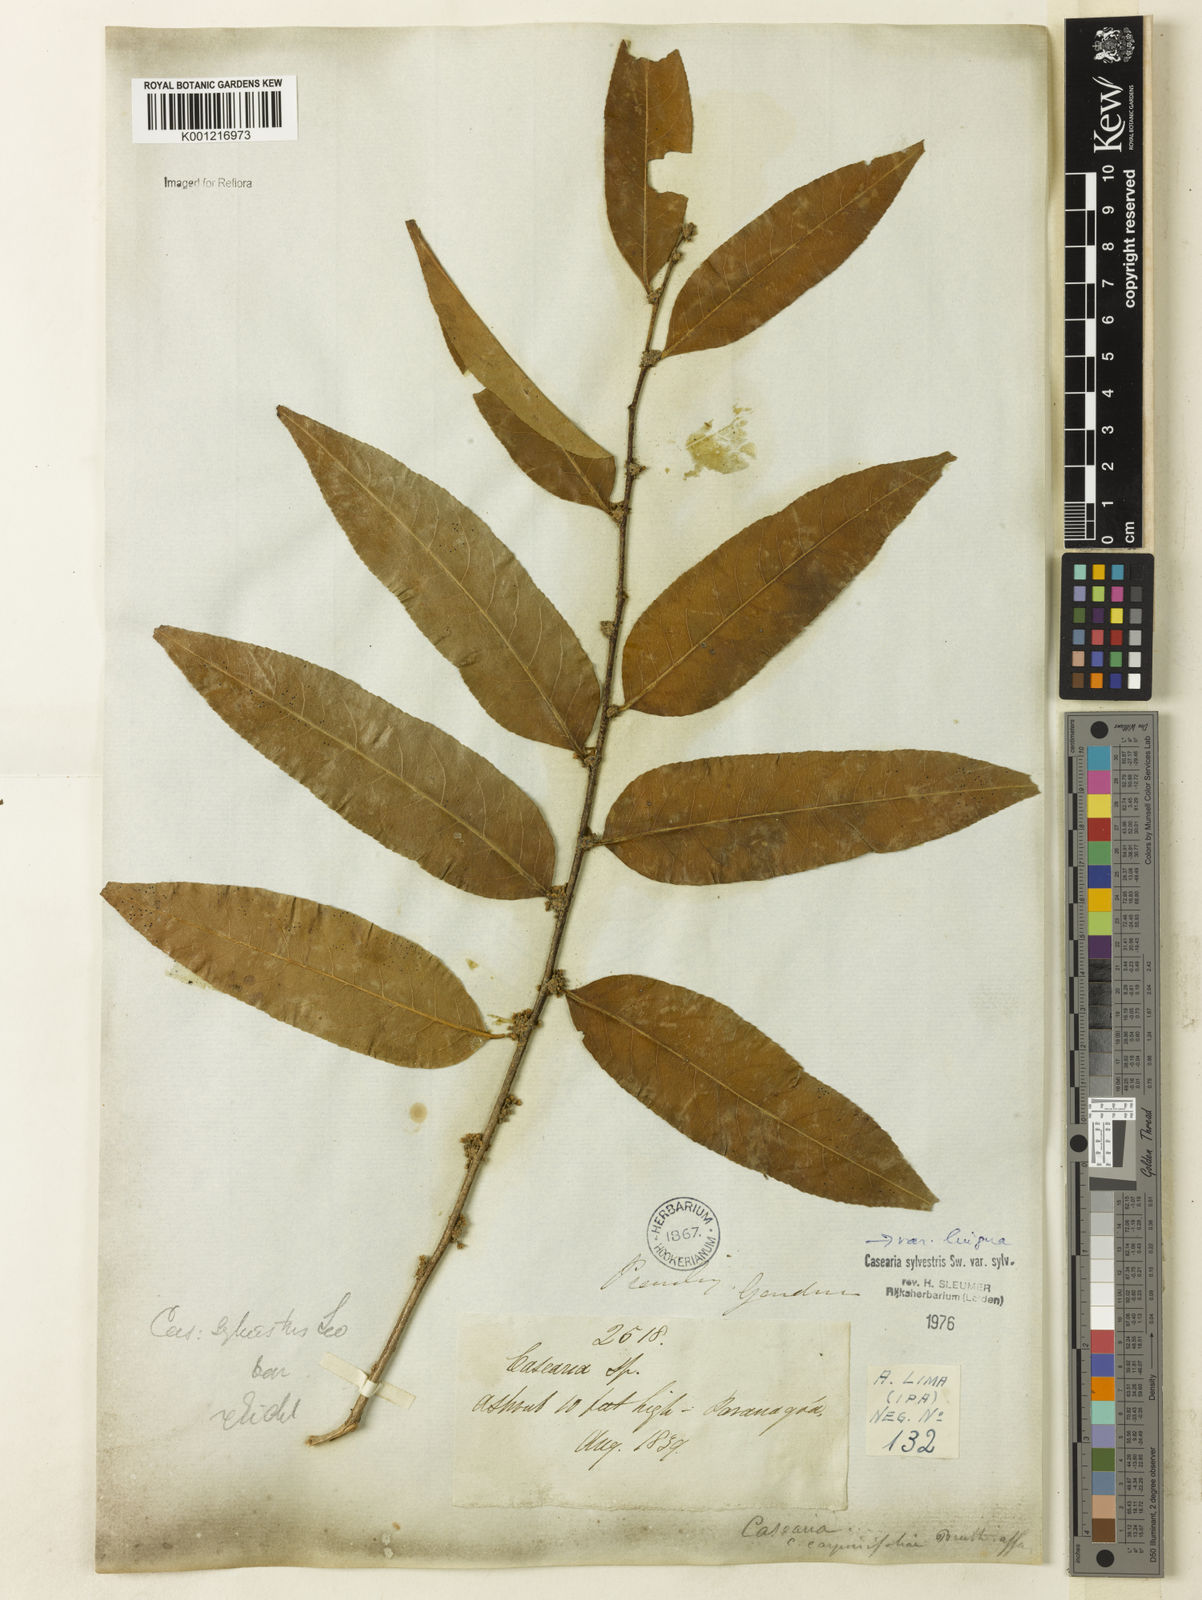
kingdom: Plantae
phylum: Tracheophyta
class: Magnoliopsida
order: Malpighiales
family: Salicaceae
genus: Casearia
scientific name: Casearia sylvestris
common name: Wild sage
